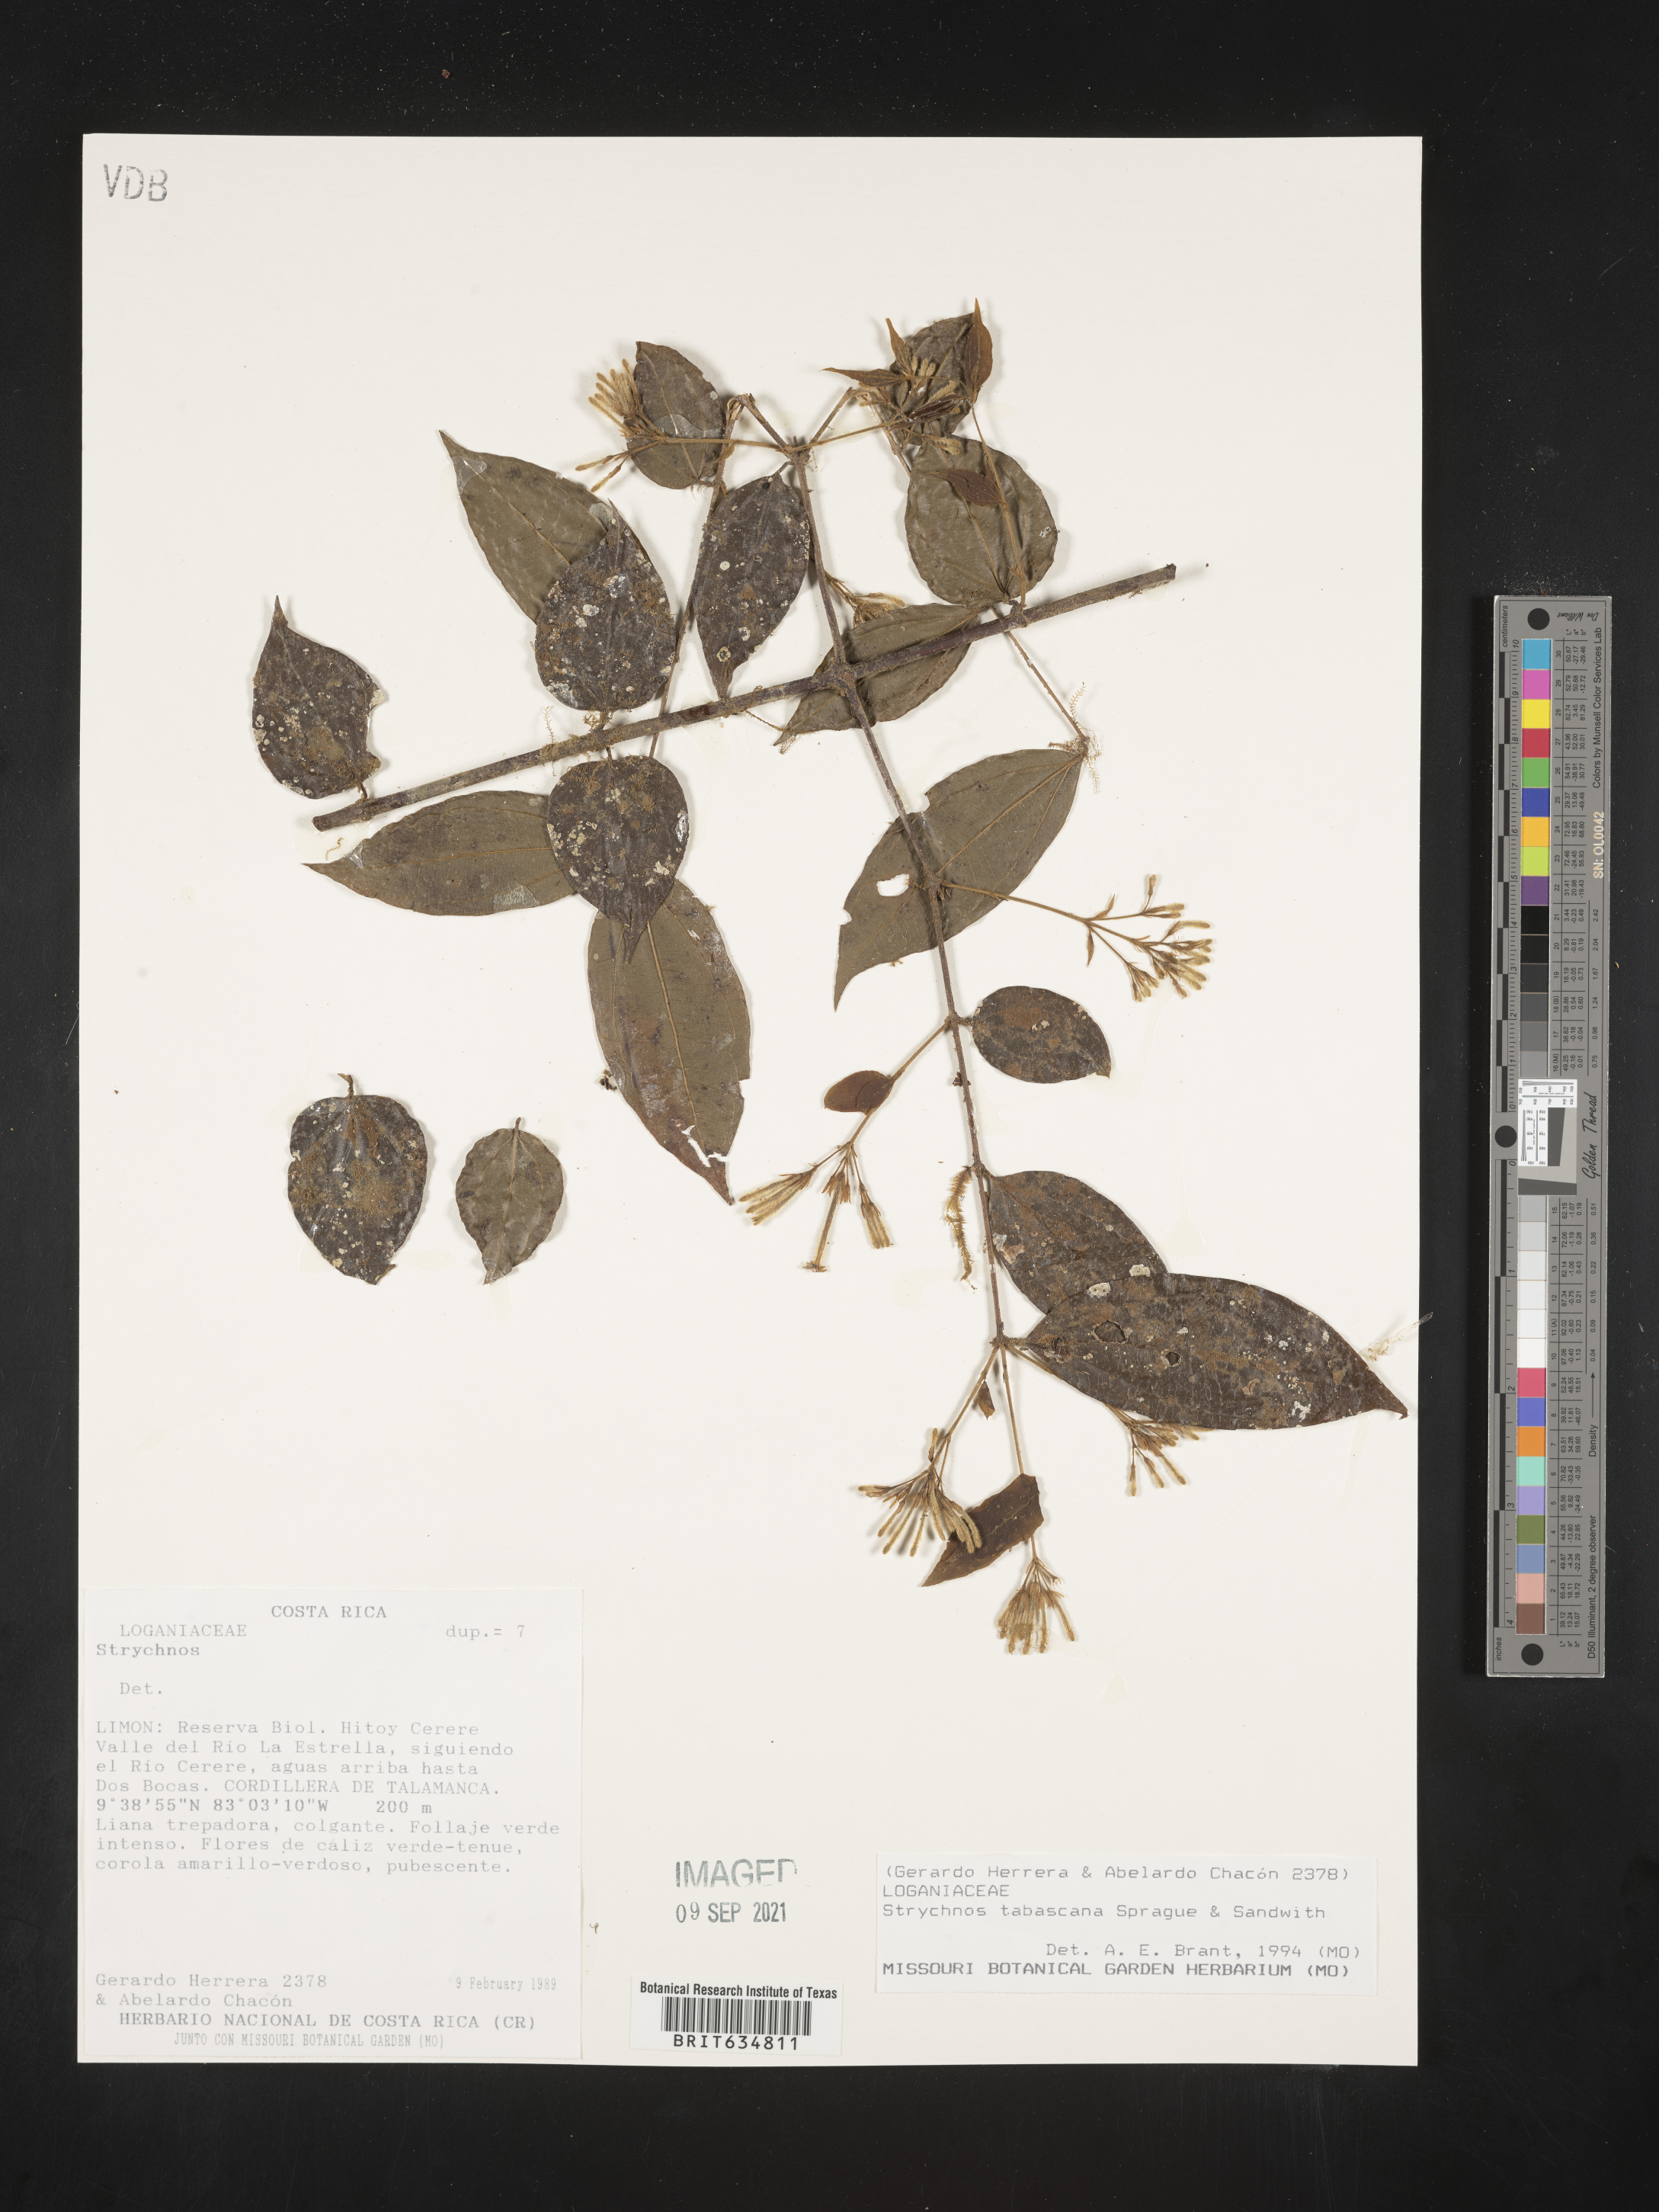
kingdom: Plantae
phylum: Tracheophyta
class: Magnoliopsida
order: Gentianales
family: Loganiaceae
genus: Strychnos
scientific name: Strychnos
